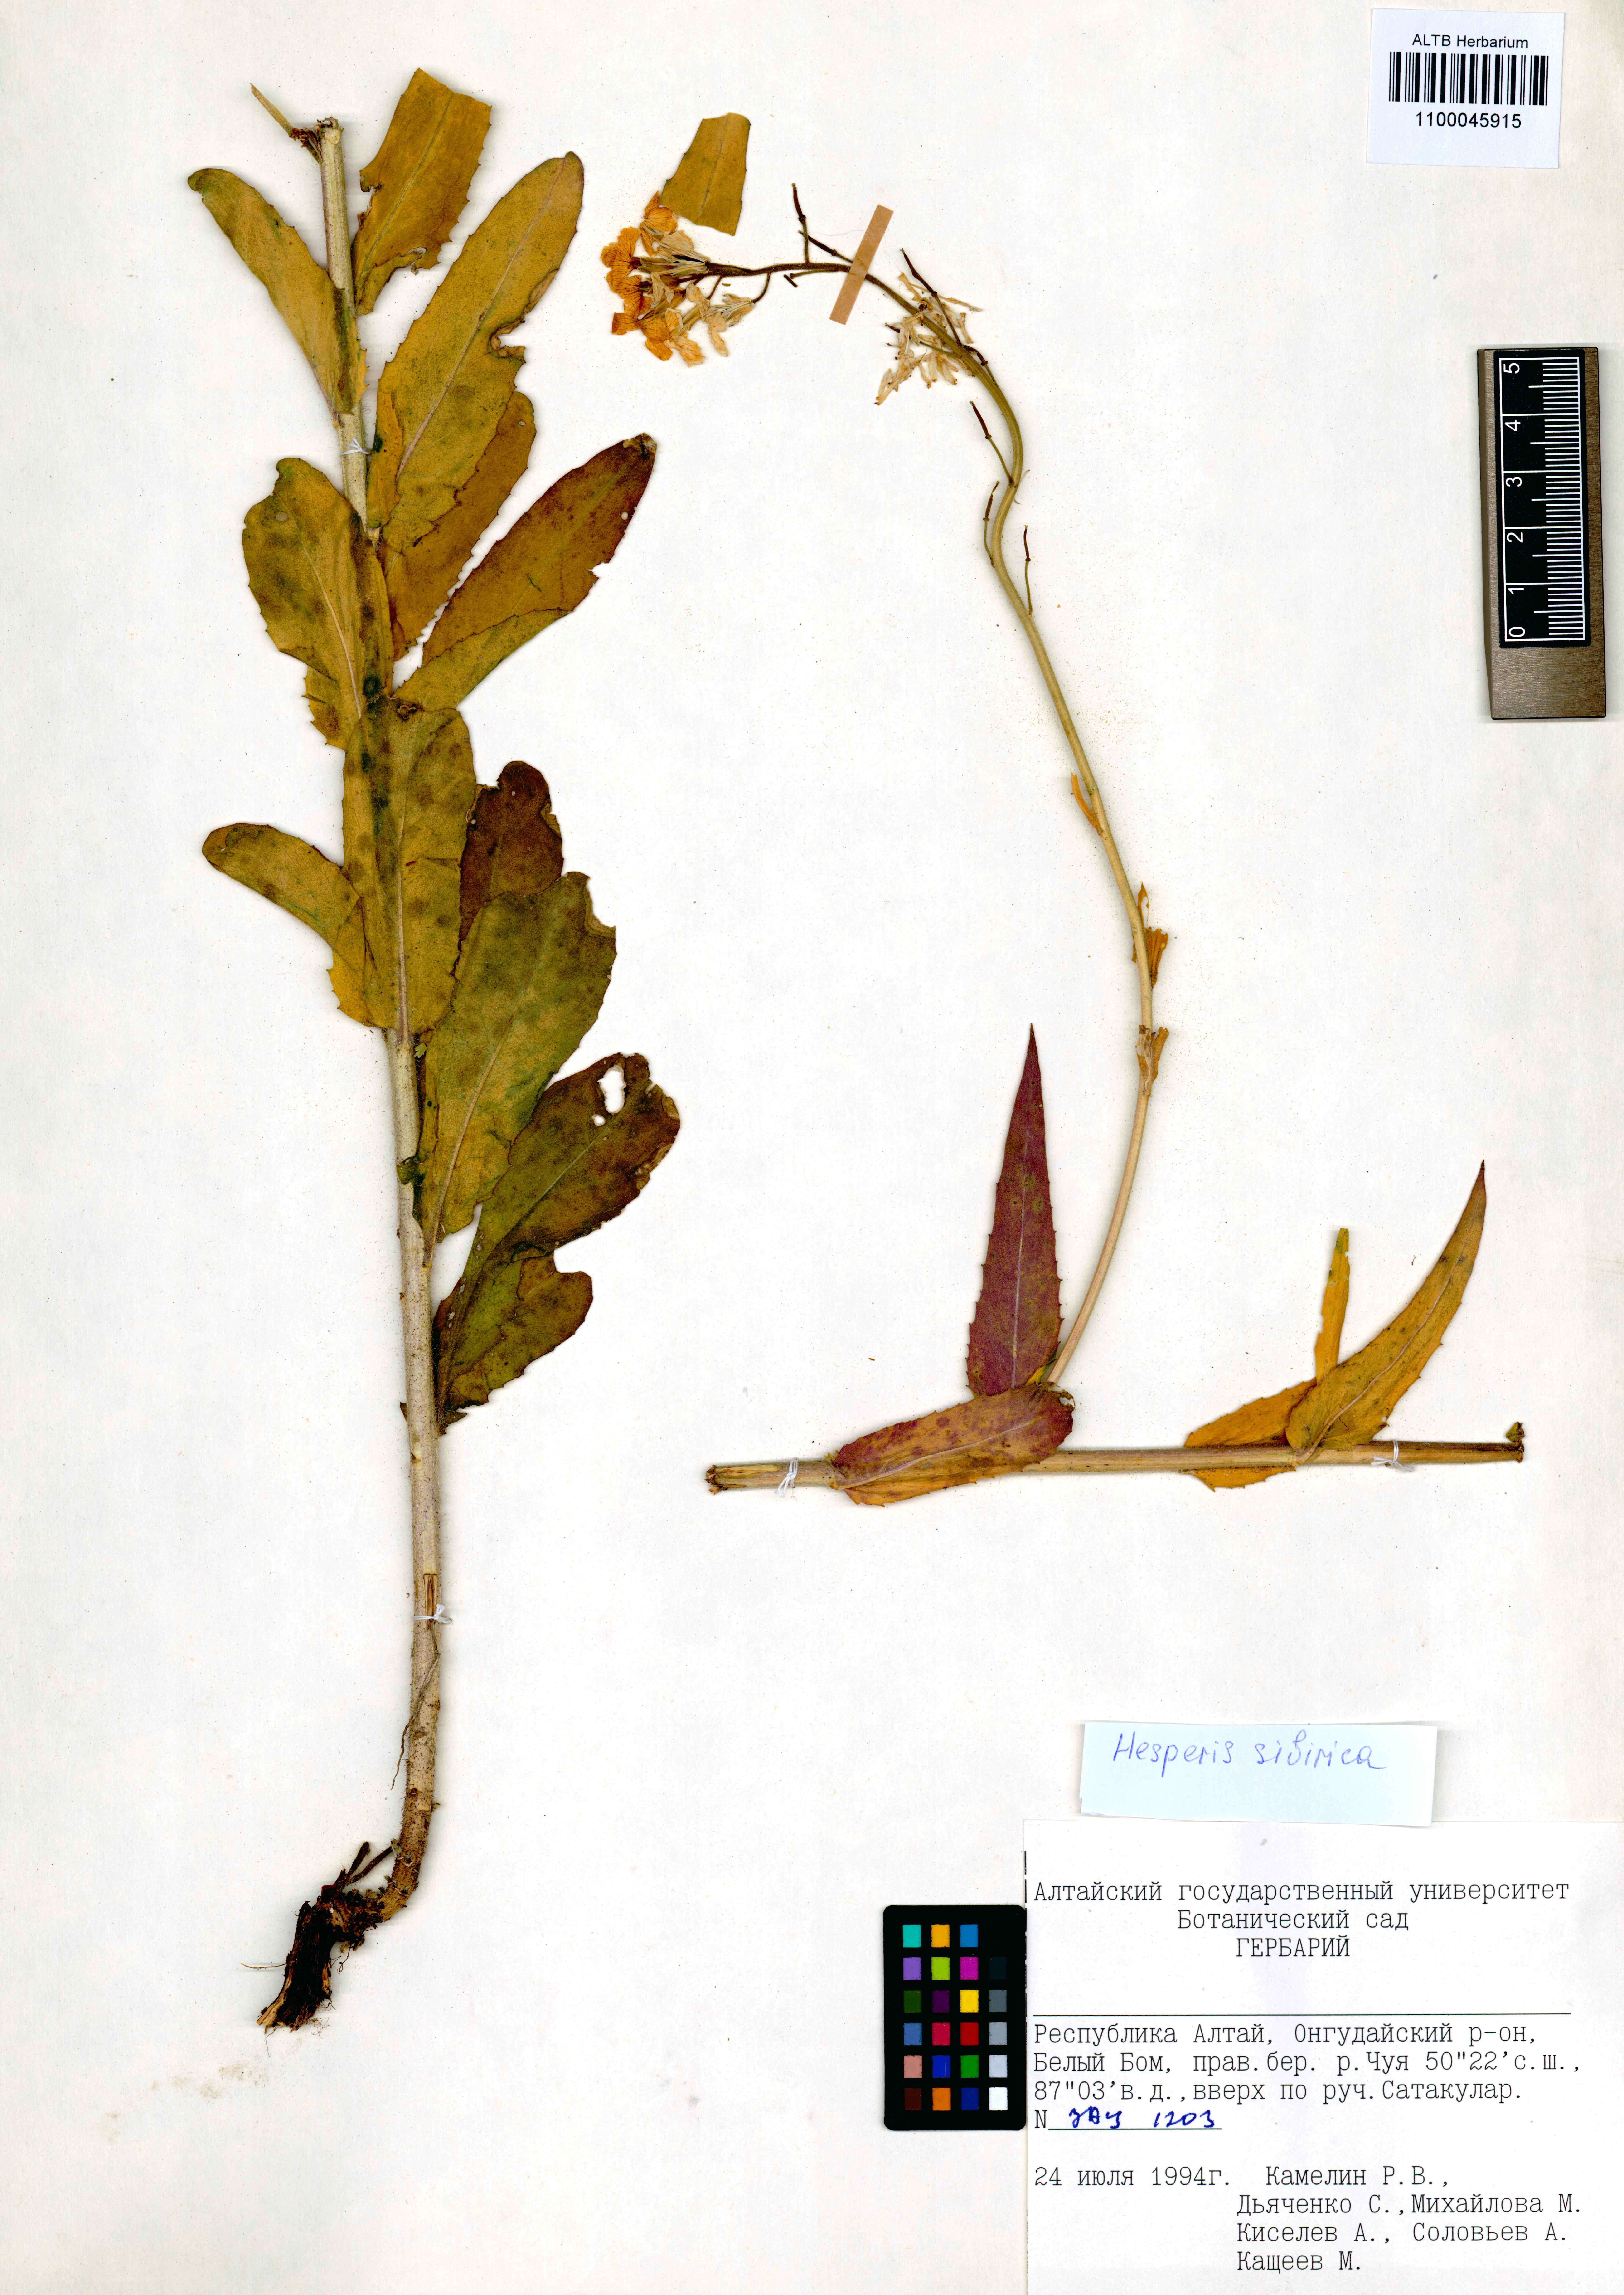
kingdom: Plantae
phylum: Tracheophyta
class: Magnoliopsida
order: Brassicales
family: Brassicaceae
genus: Hesperis
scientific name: Hesperis sibirica
